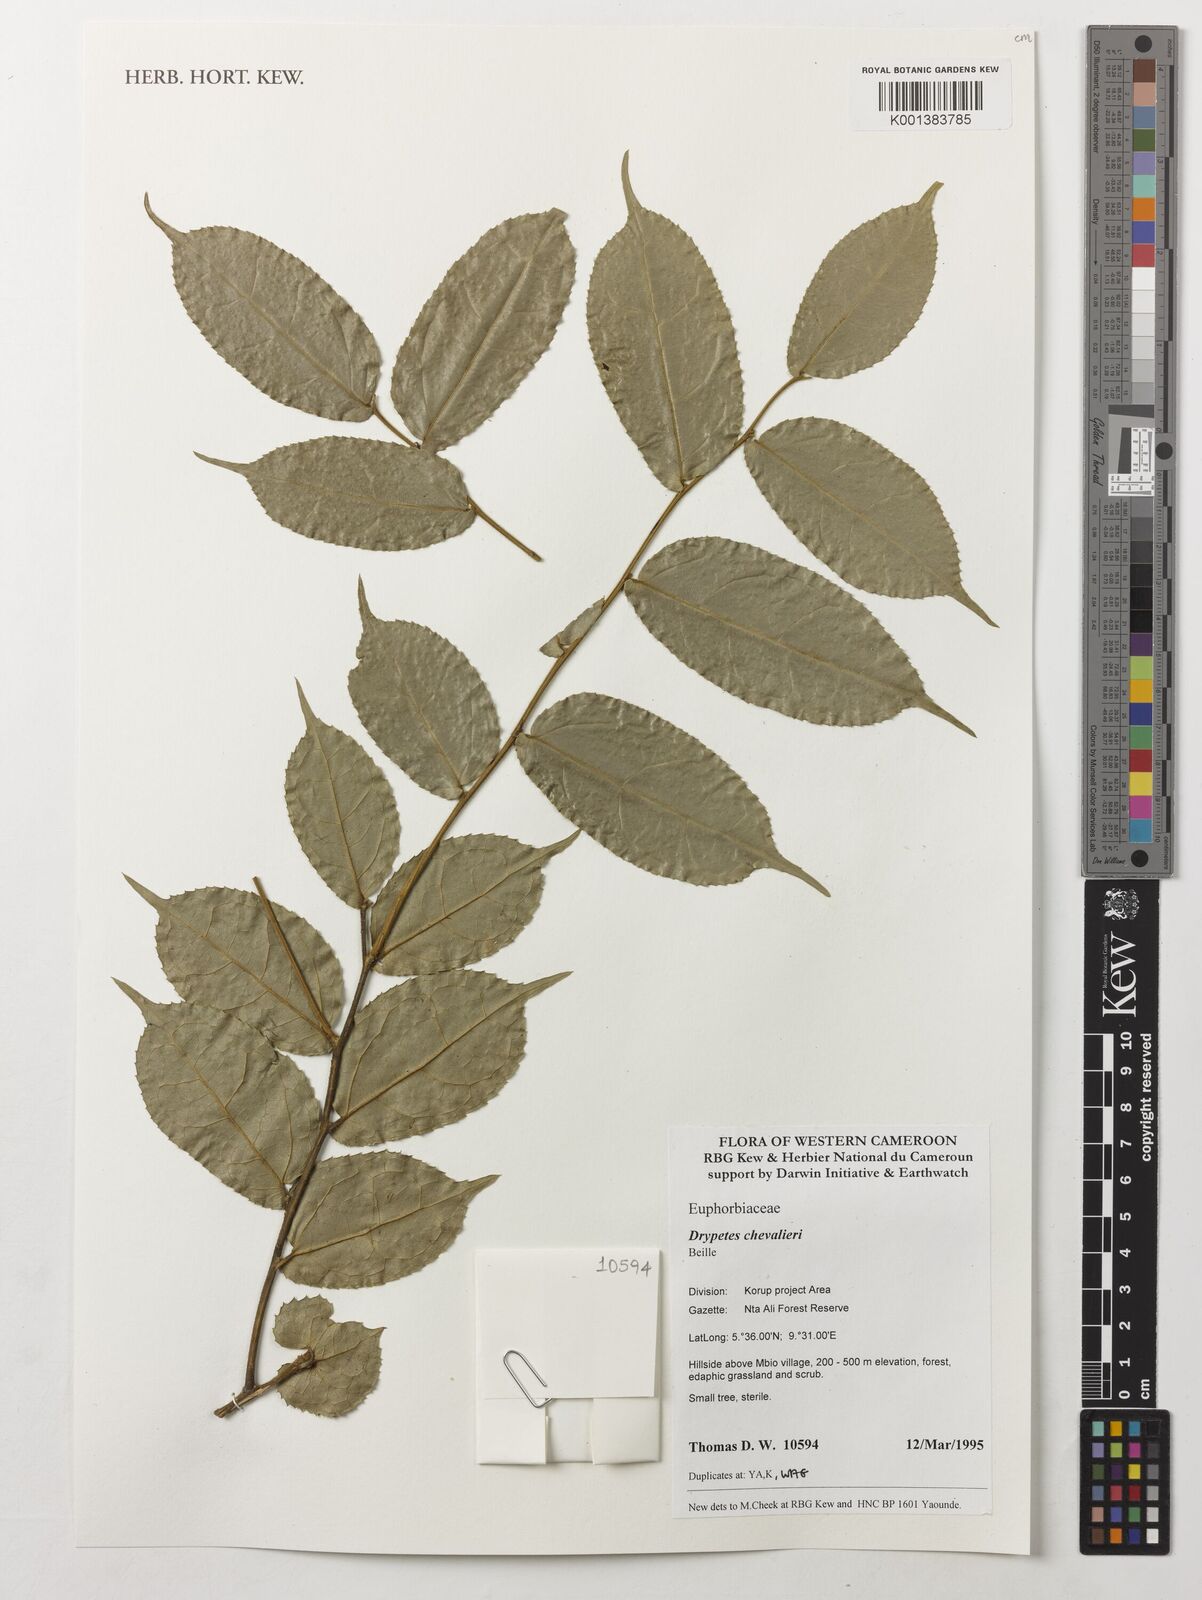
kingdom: Plantae
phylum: Tracheophyta
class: Magnoliopsida
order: Malpighiales
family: Putranjivaceae
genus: Drypetes
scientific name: Drypetes chevalieri
